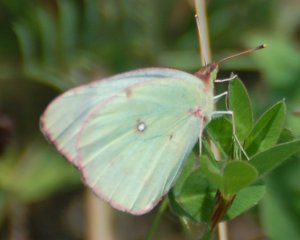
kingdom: Animalia
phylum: Arthropoda
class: Insecta
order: Lepidoptera
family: Pieridae
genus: Colias
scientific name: Colias interior
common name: Pink-edged Sulphur
